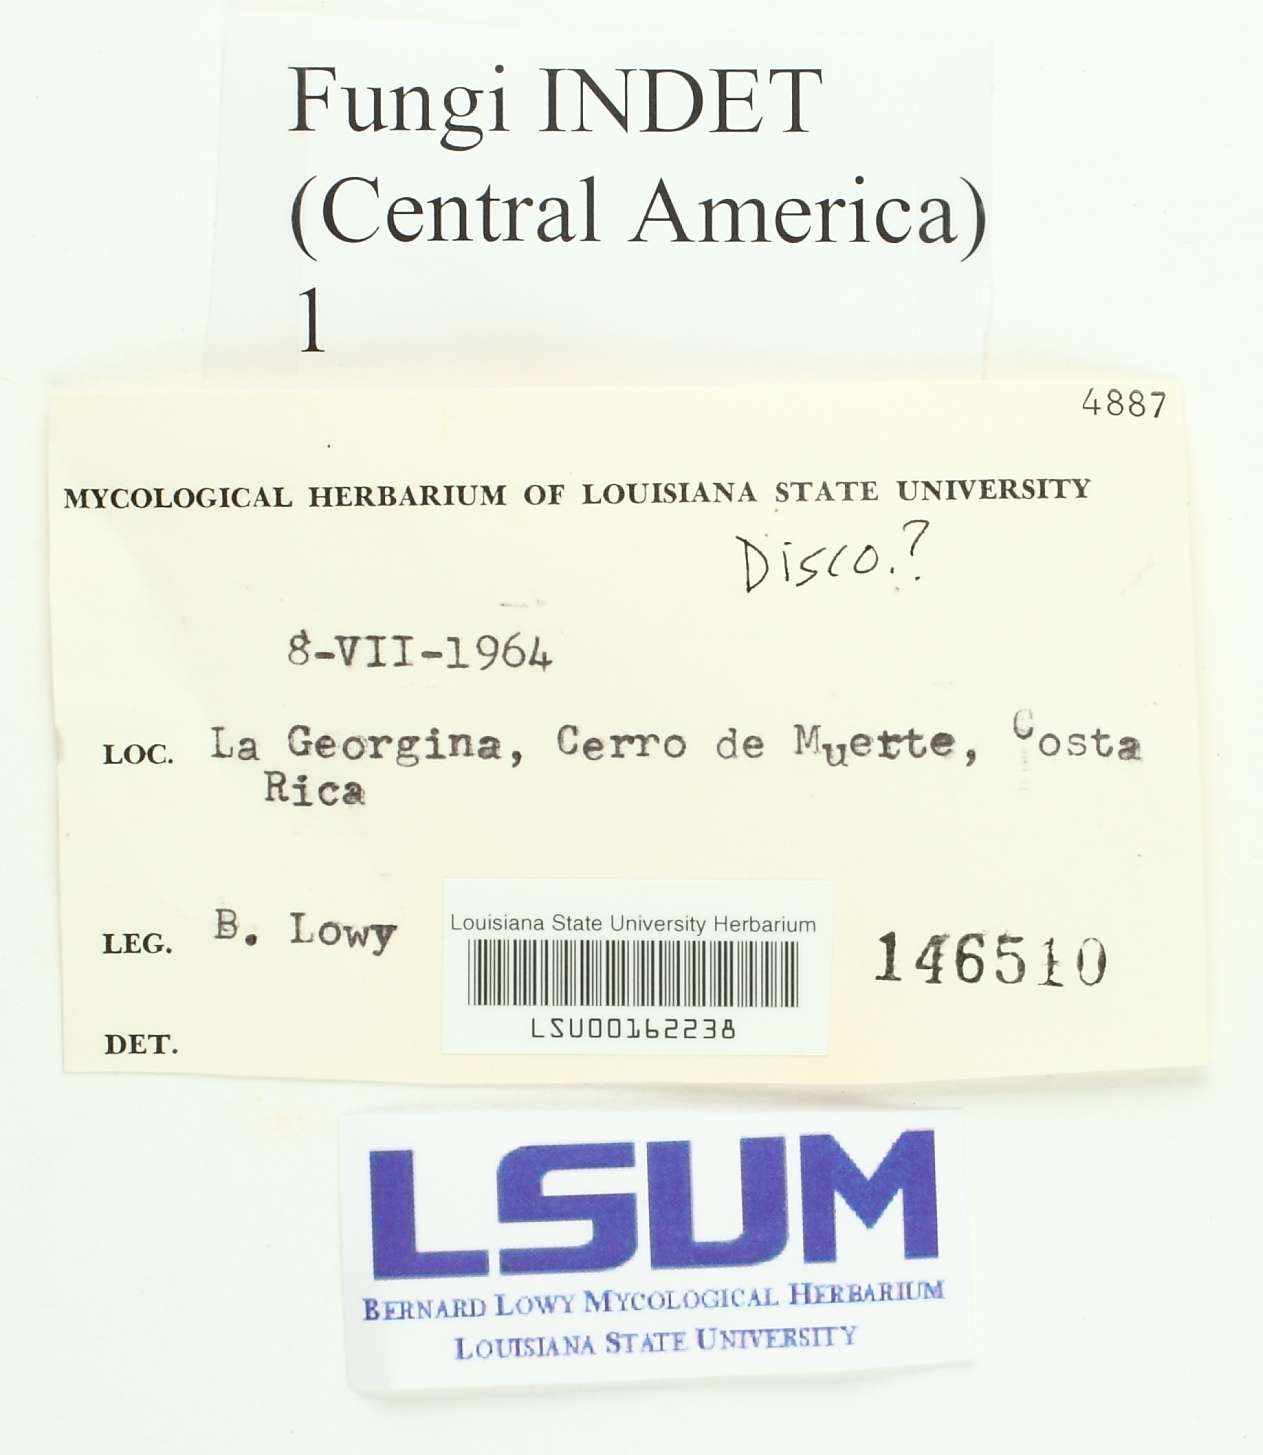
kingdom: Fungi
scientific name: Fungi
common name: Fungi
